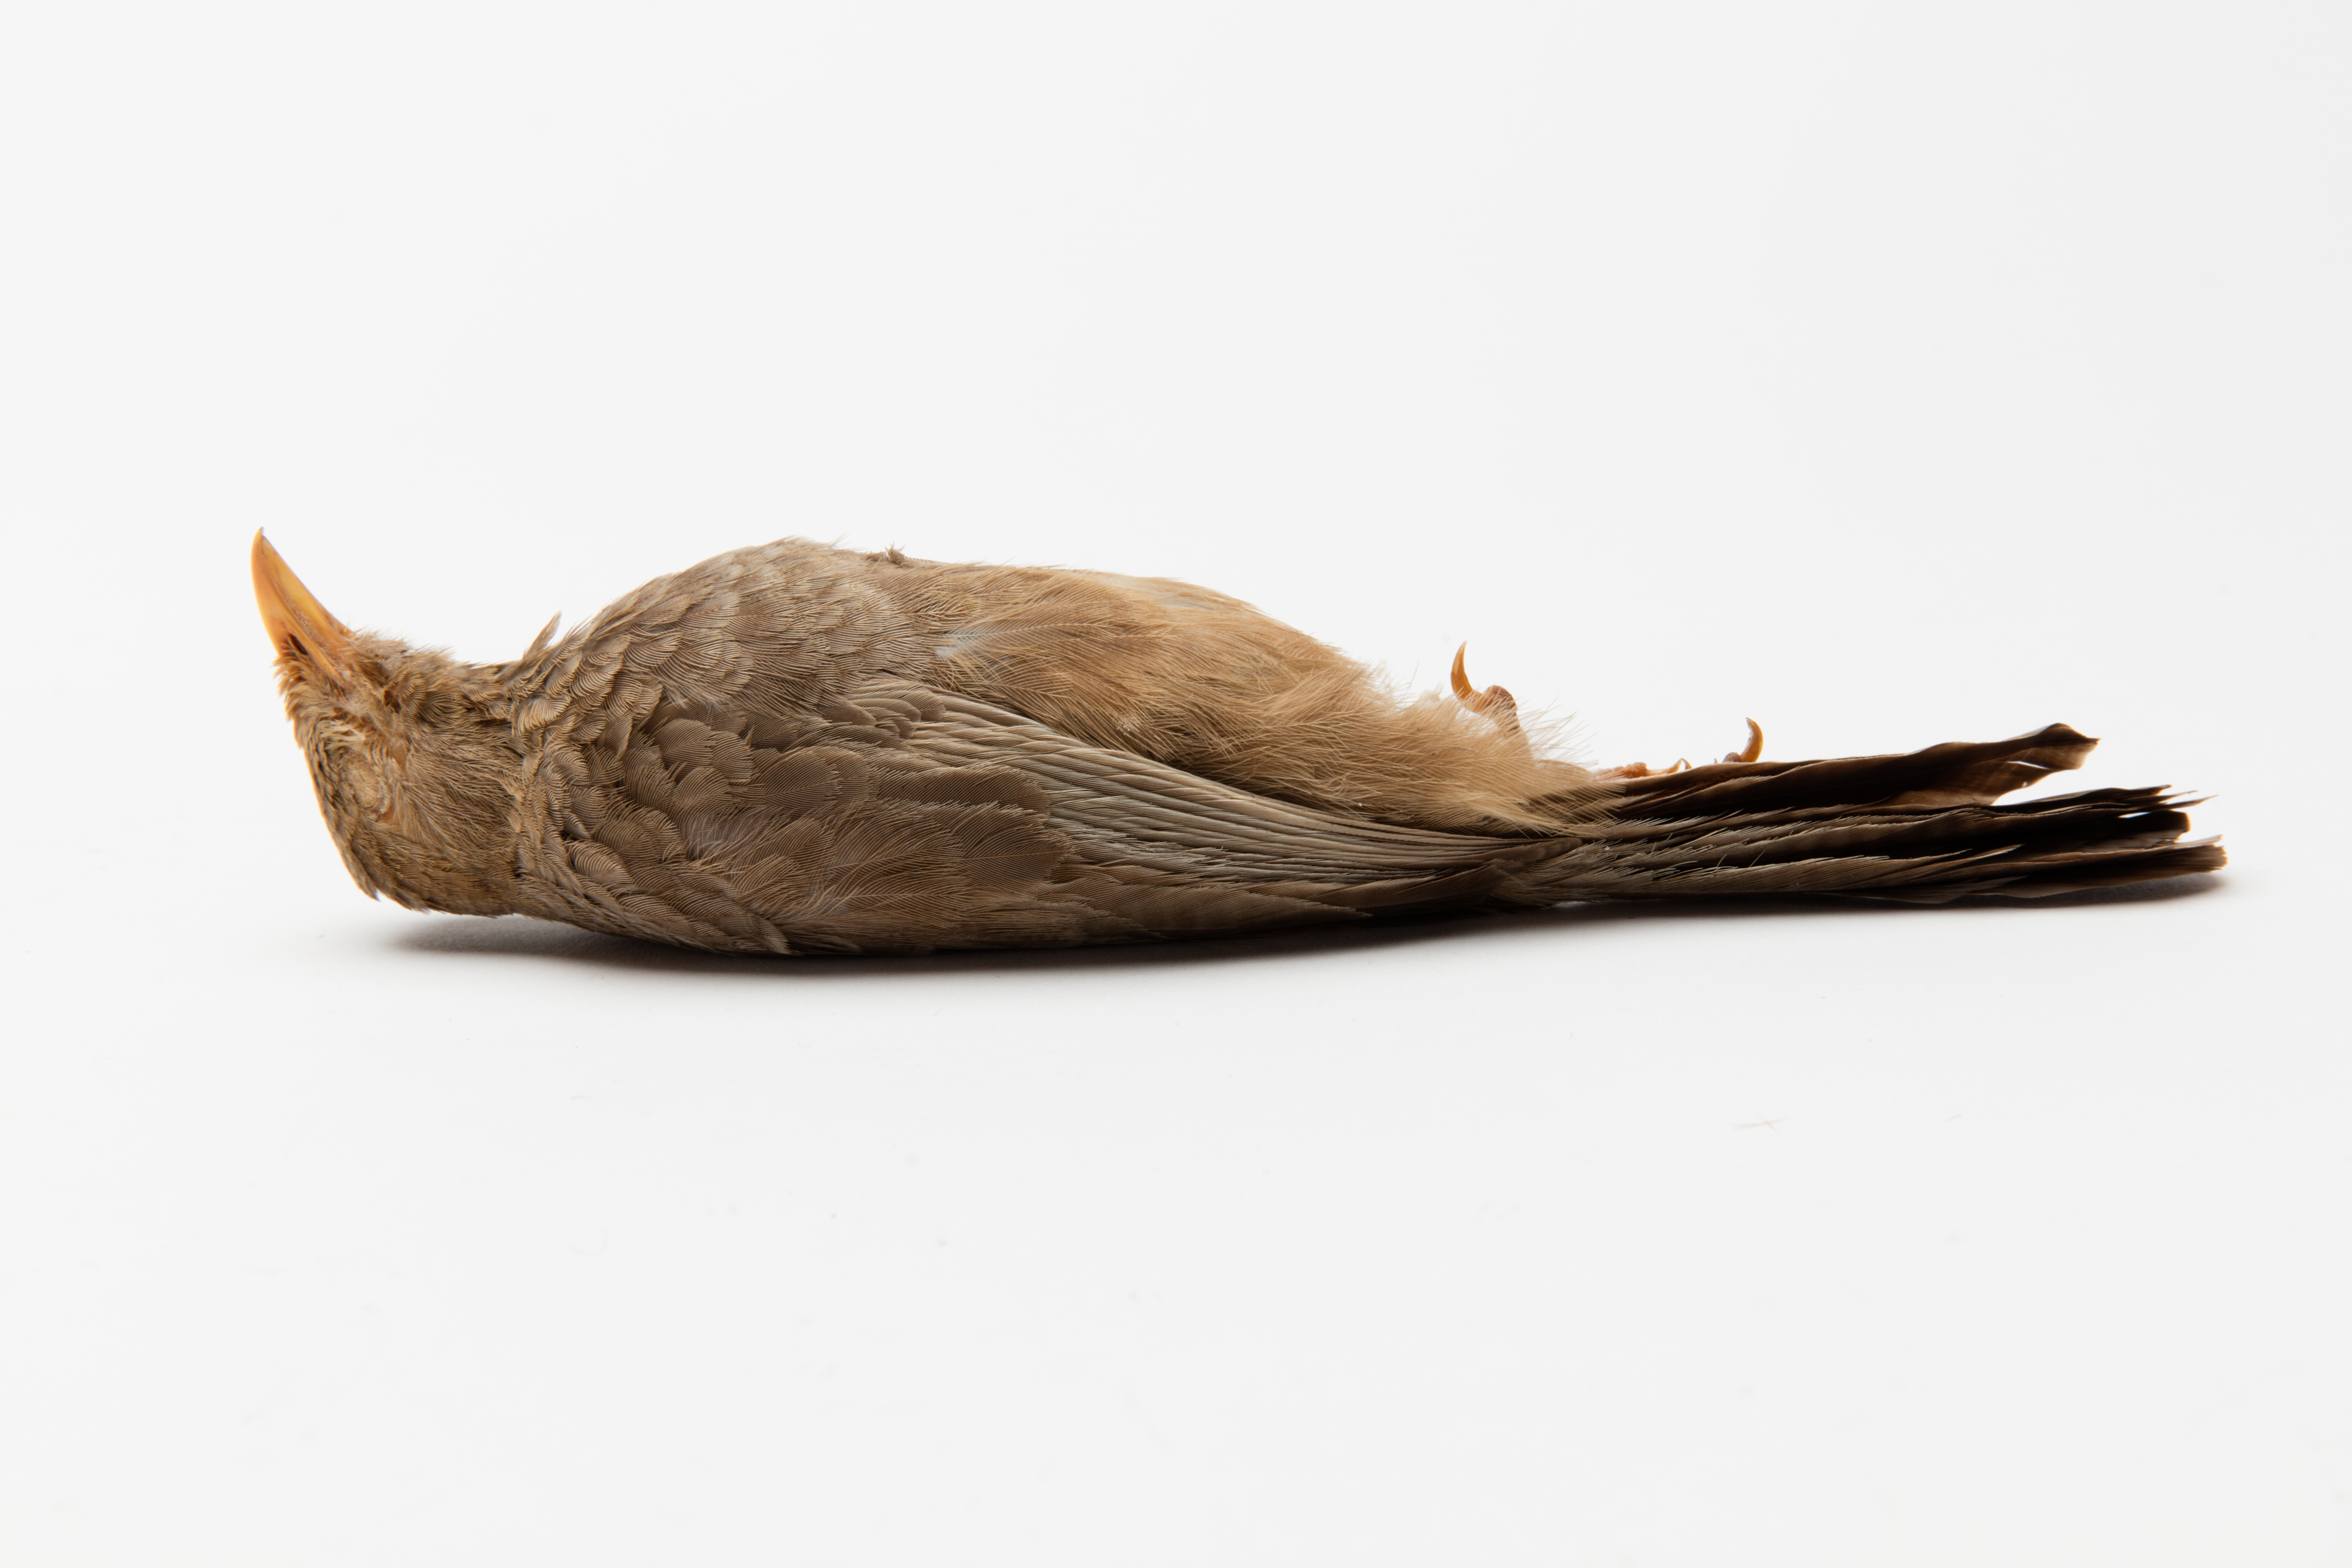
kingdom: Animalia
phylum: Chordata
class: Aves
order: Passeriformes
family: Leiothrichidae
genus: Turdoides
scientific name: Turdoides striata
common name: Jungle babbler
